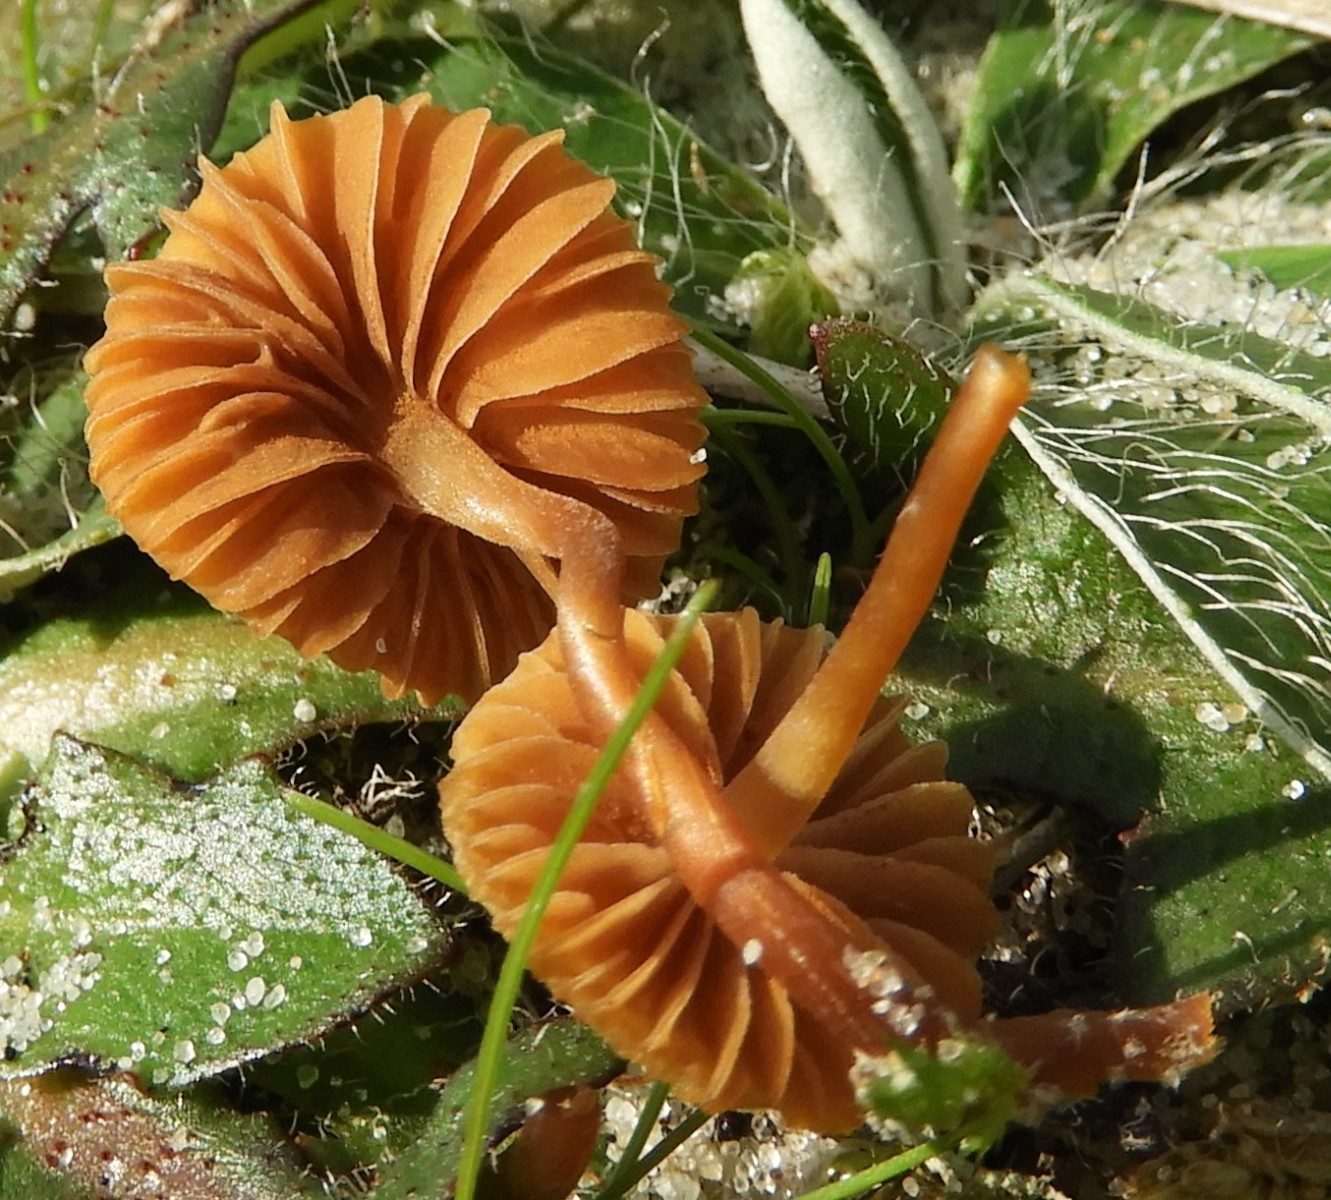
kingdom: Fungi
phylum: Basidiomycota
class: Agaricomycetes
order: Agaricales
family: Tubariaceae
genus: Tubaria
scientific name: Tubaria furfuracea
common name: kliddet fnughat
